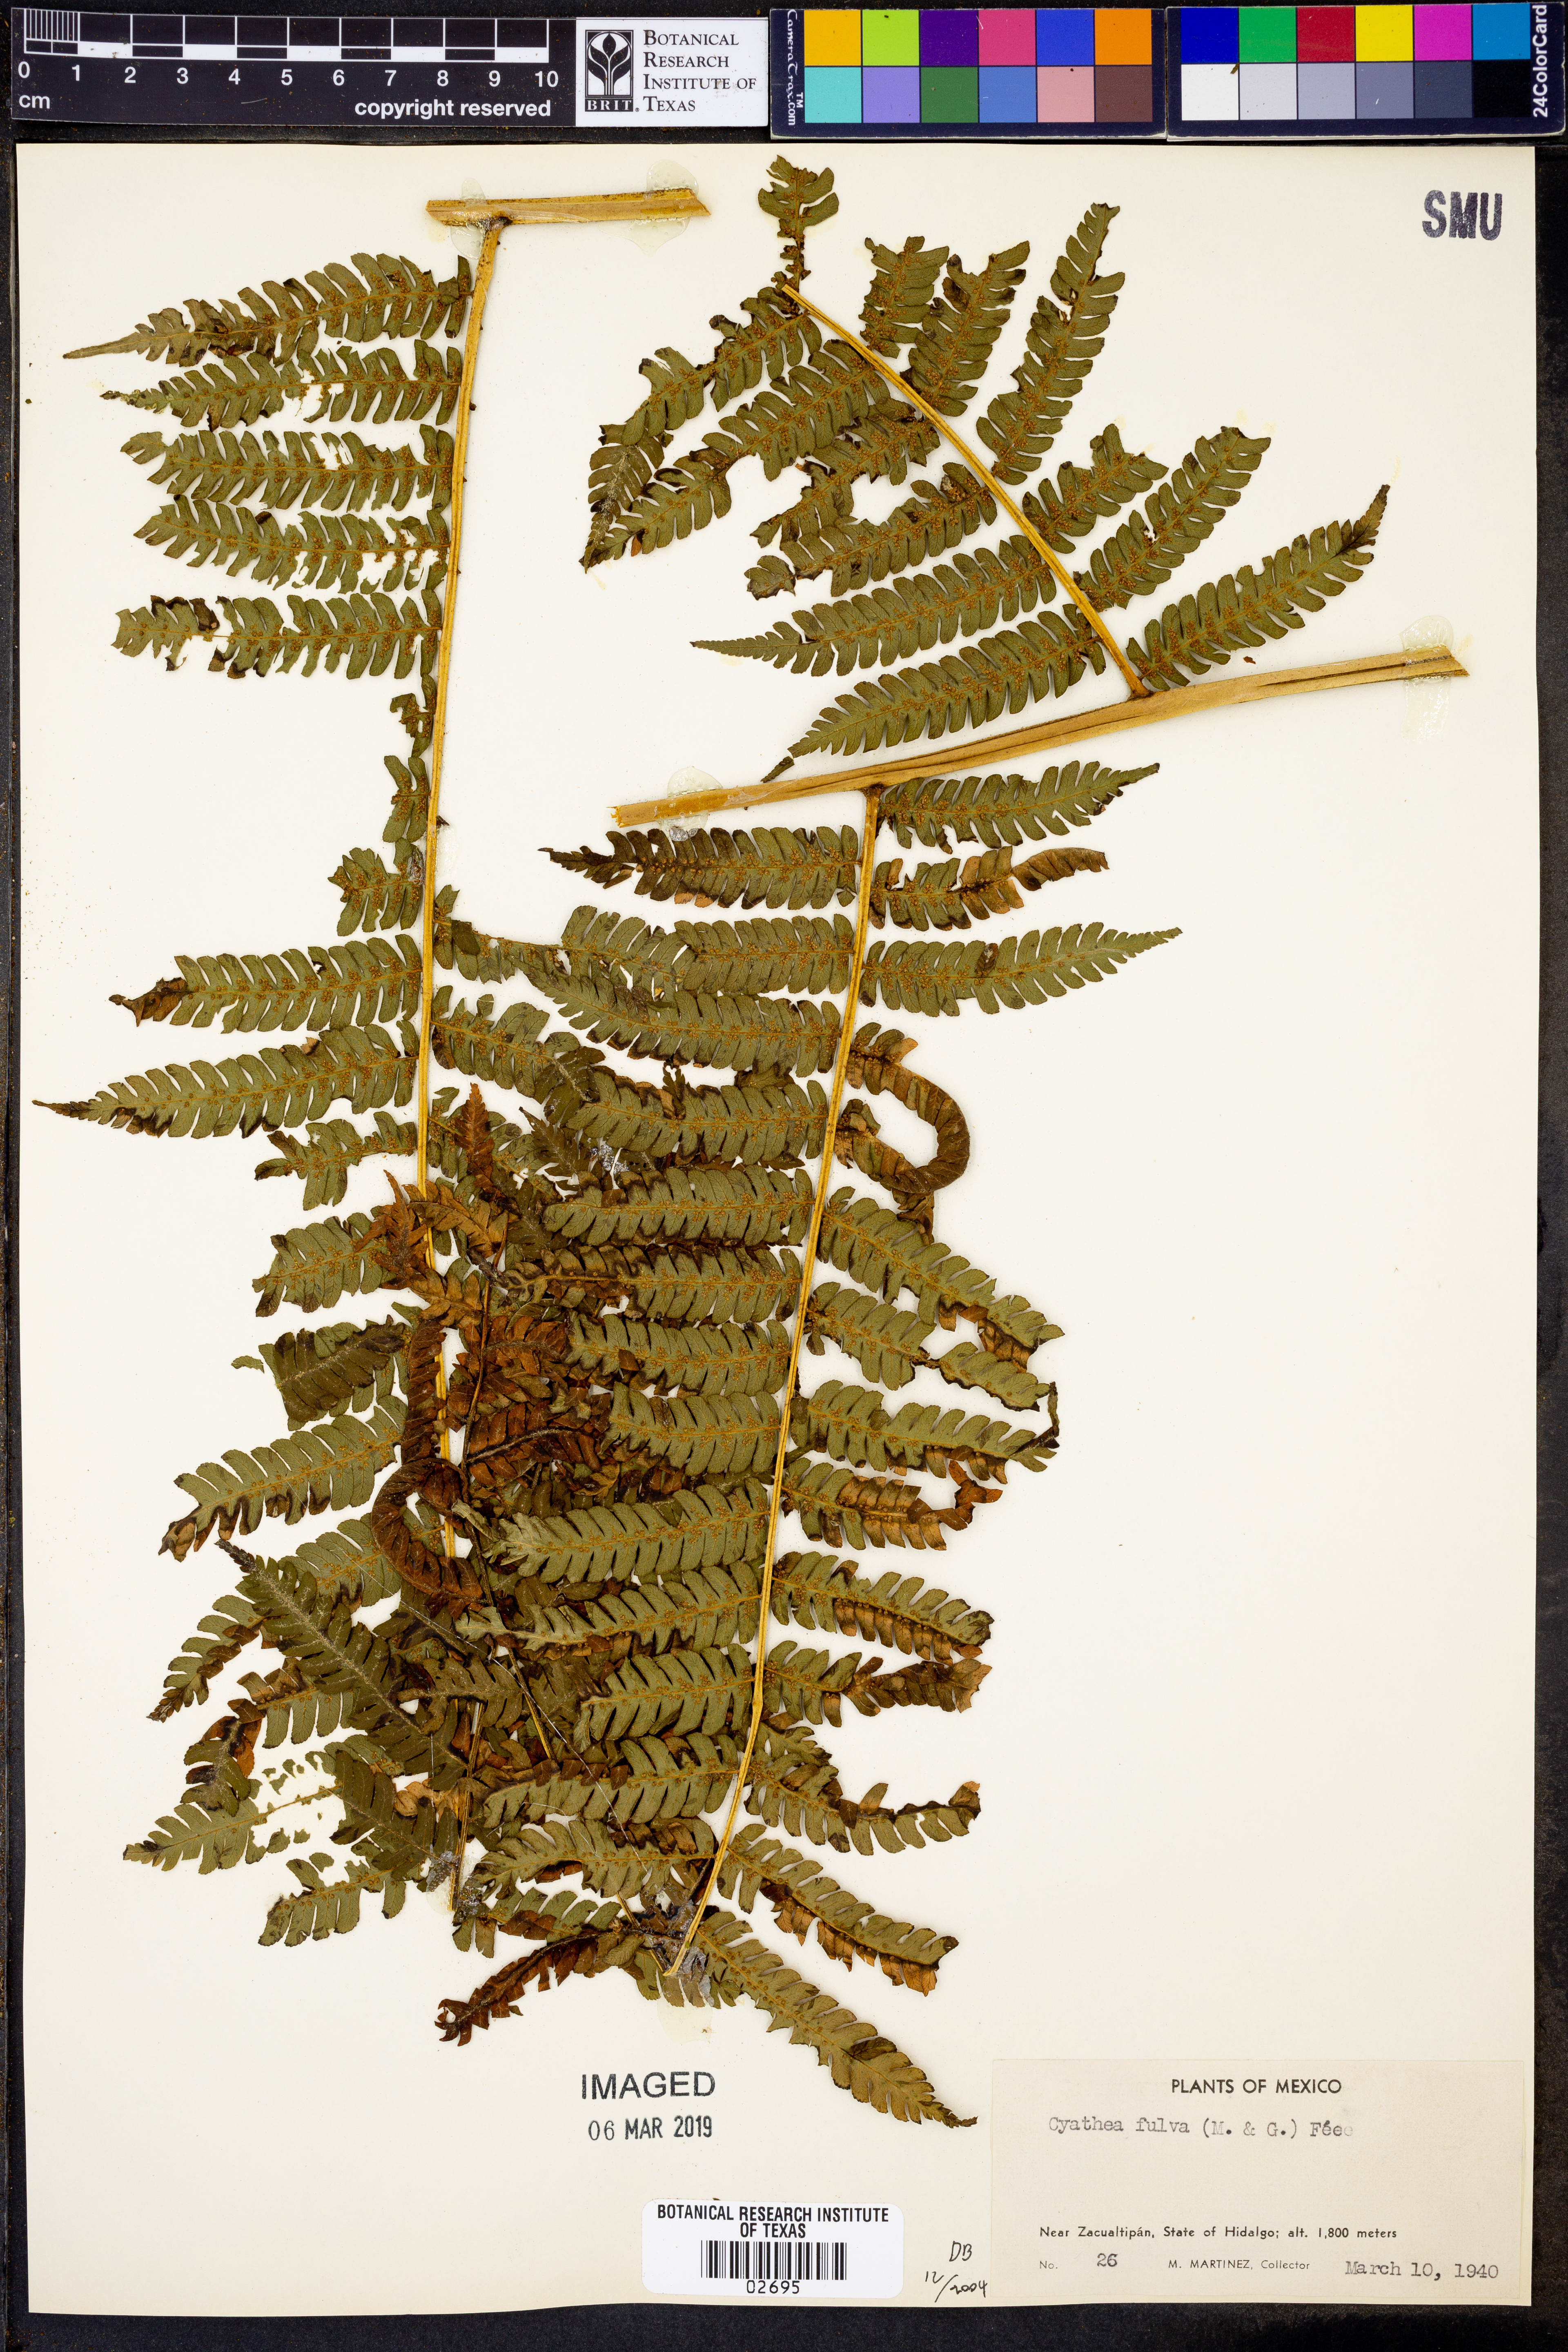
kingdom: Plantae
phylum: Tracheophyta
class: Polypodiopsida
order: Cyatheales
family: Cyatheaceae
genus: Cyathea
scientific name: Cyathea caracasana
